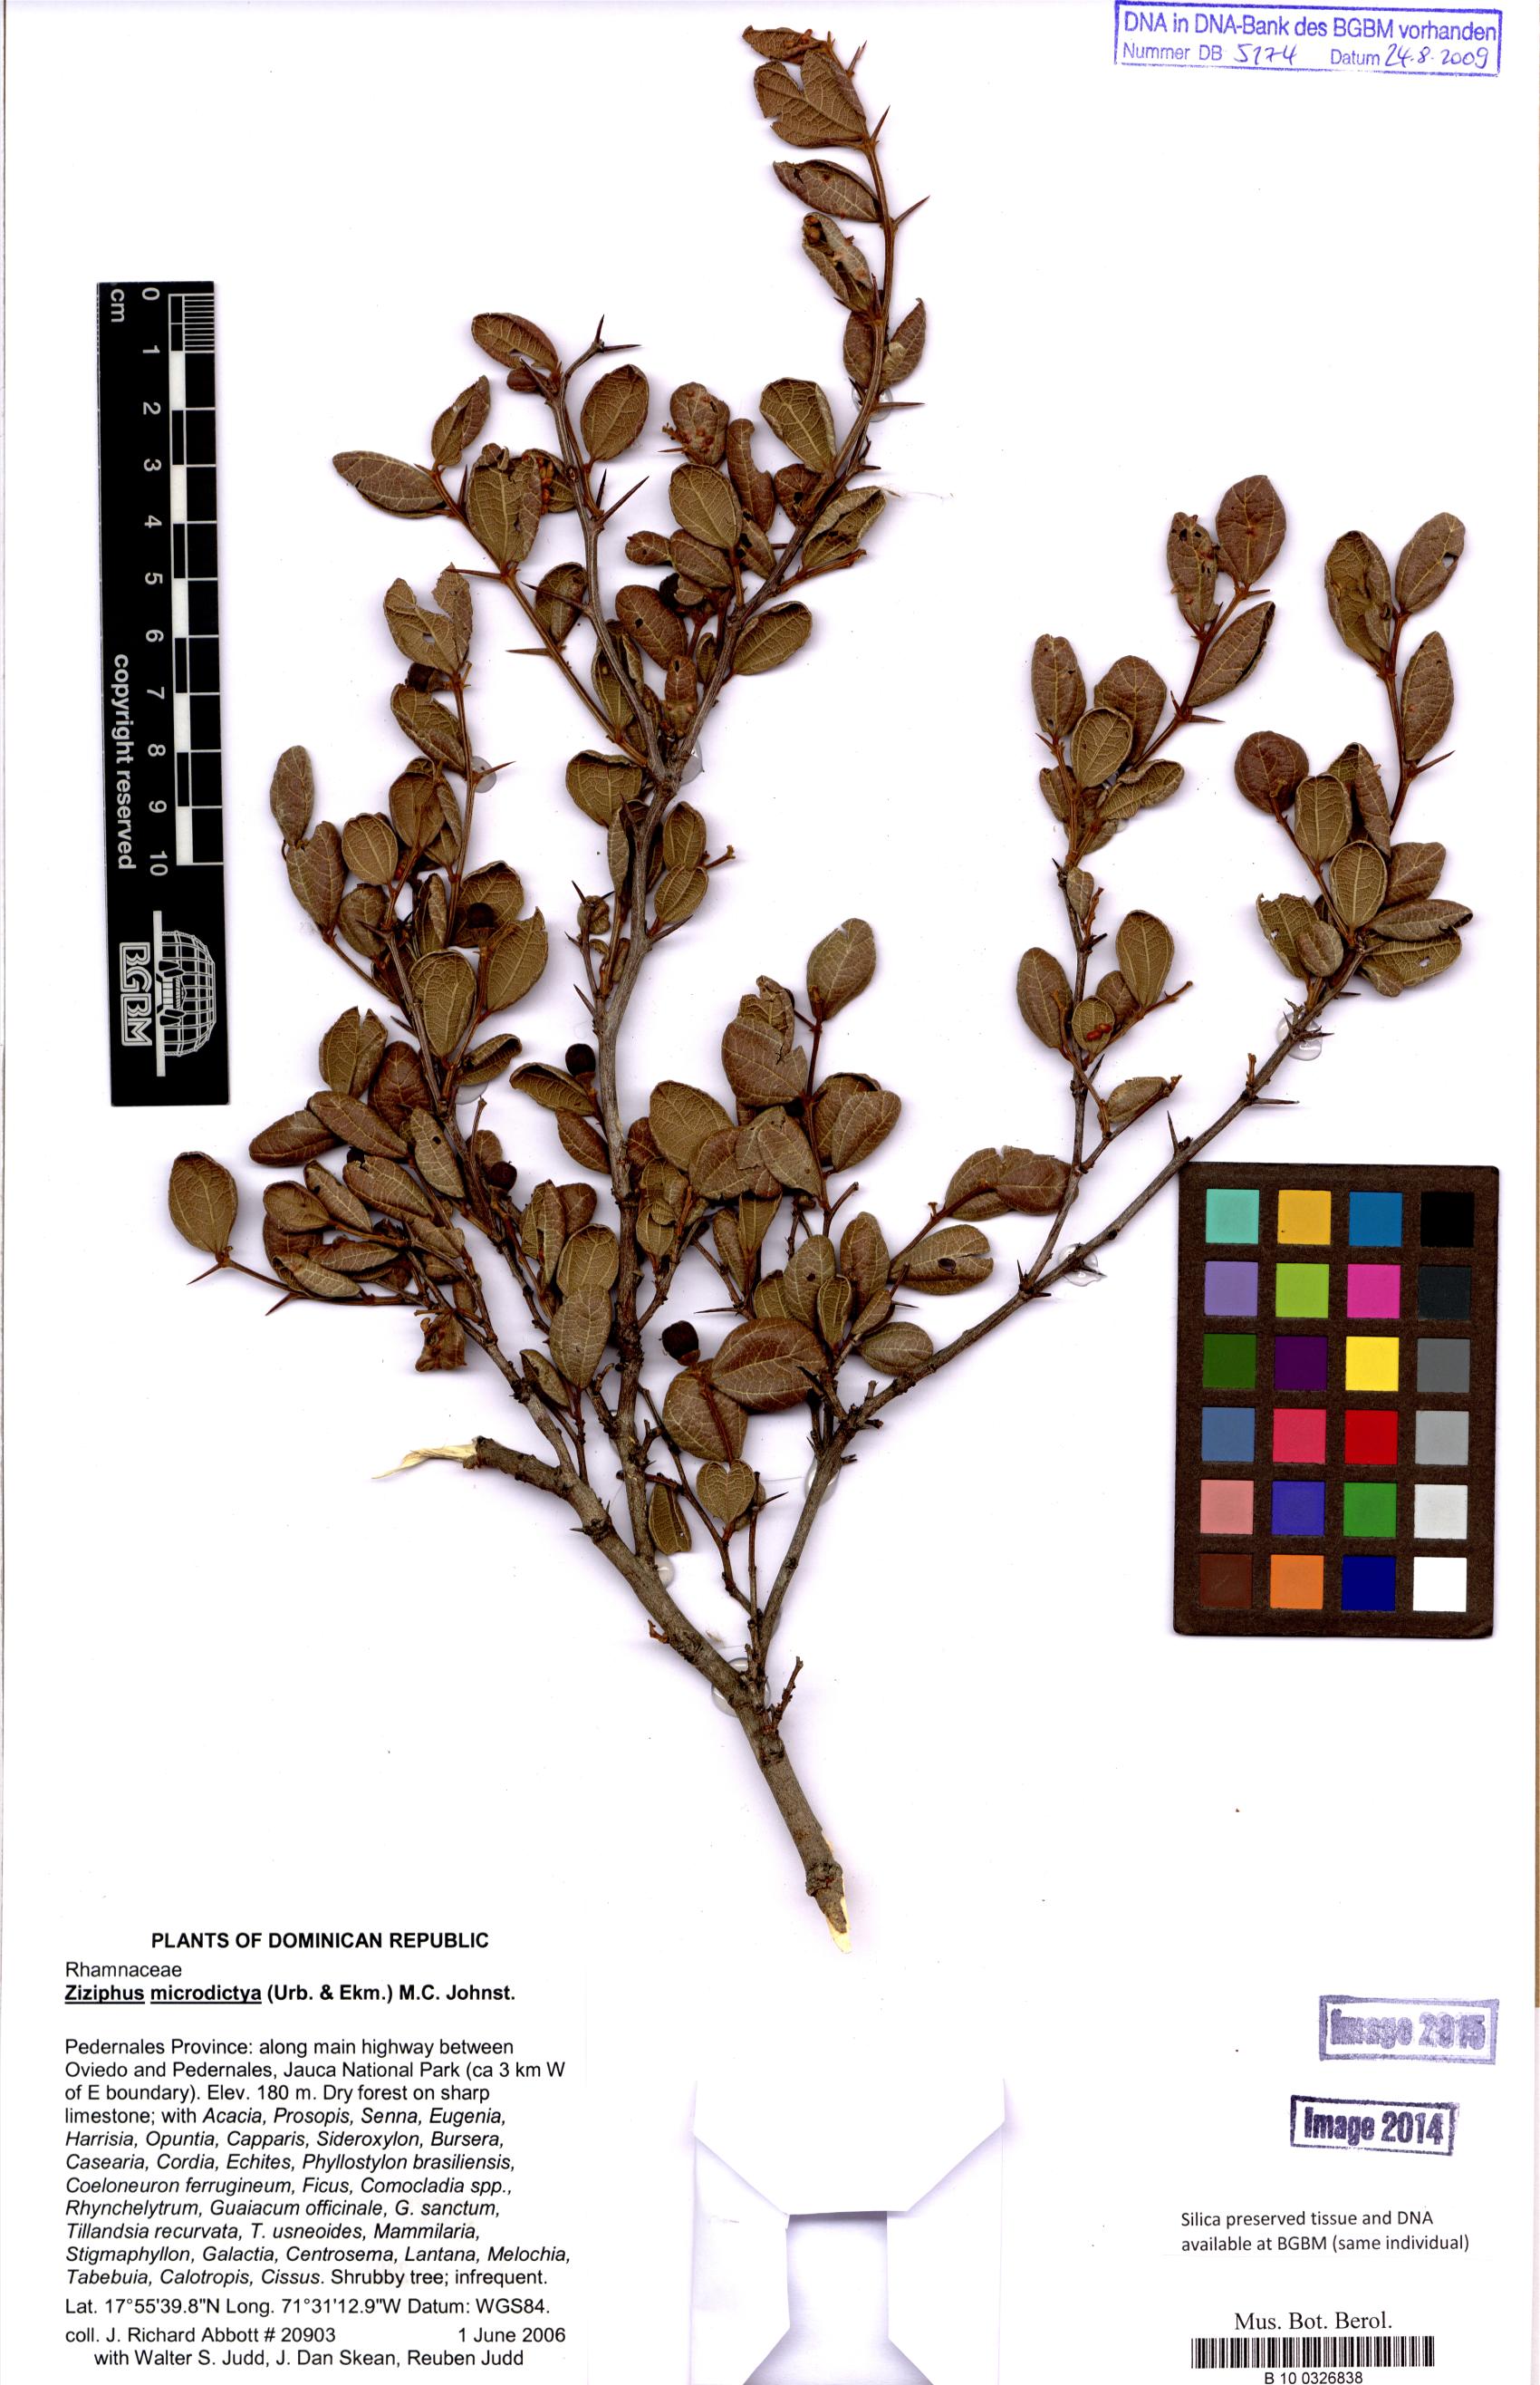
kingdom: Plantae
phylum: Tracheophyta
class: Magnoliopsida
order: Rosales
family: Rhamnaceae
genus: Sarcomphalus
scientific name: Sarcomphalus microdictyus
